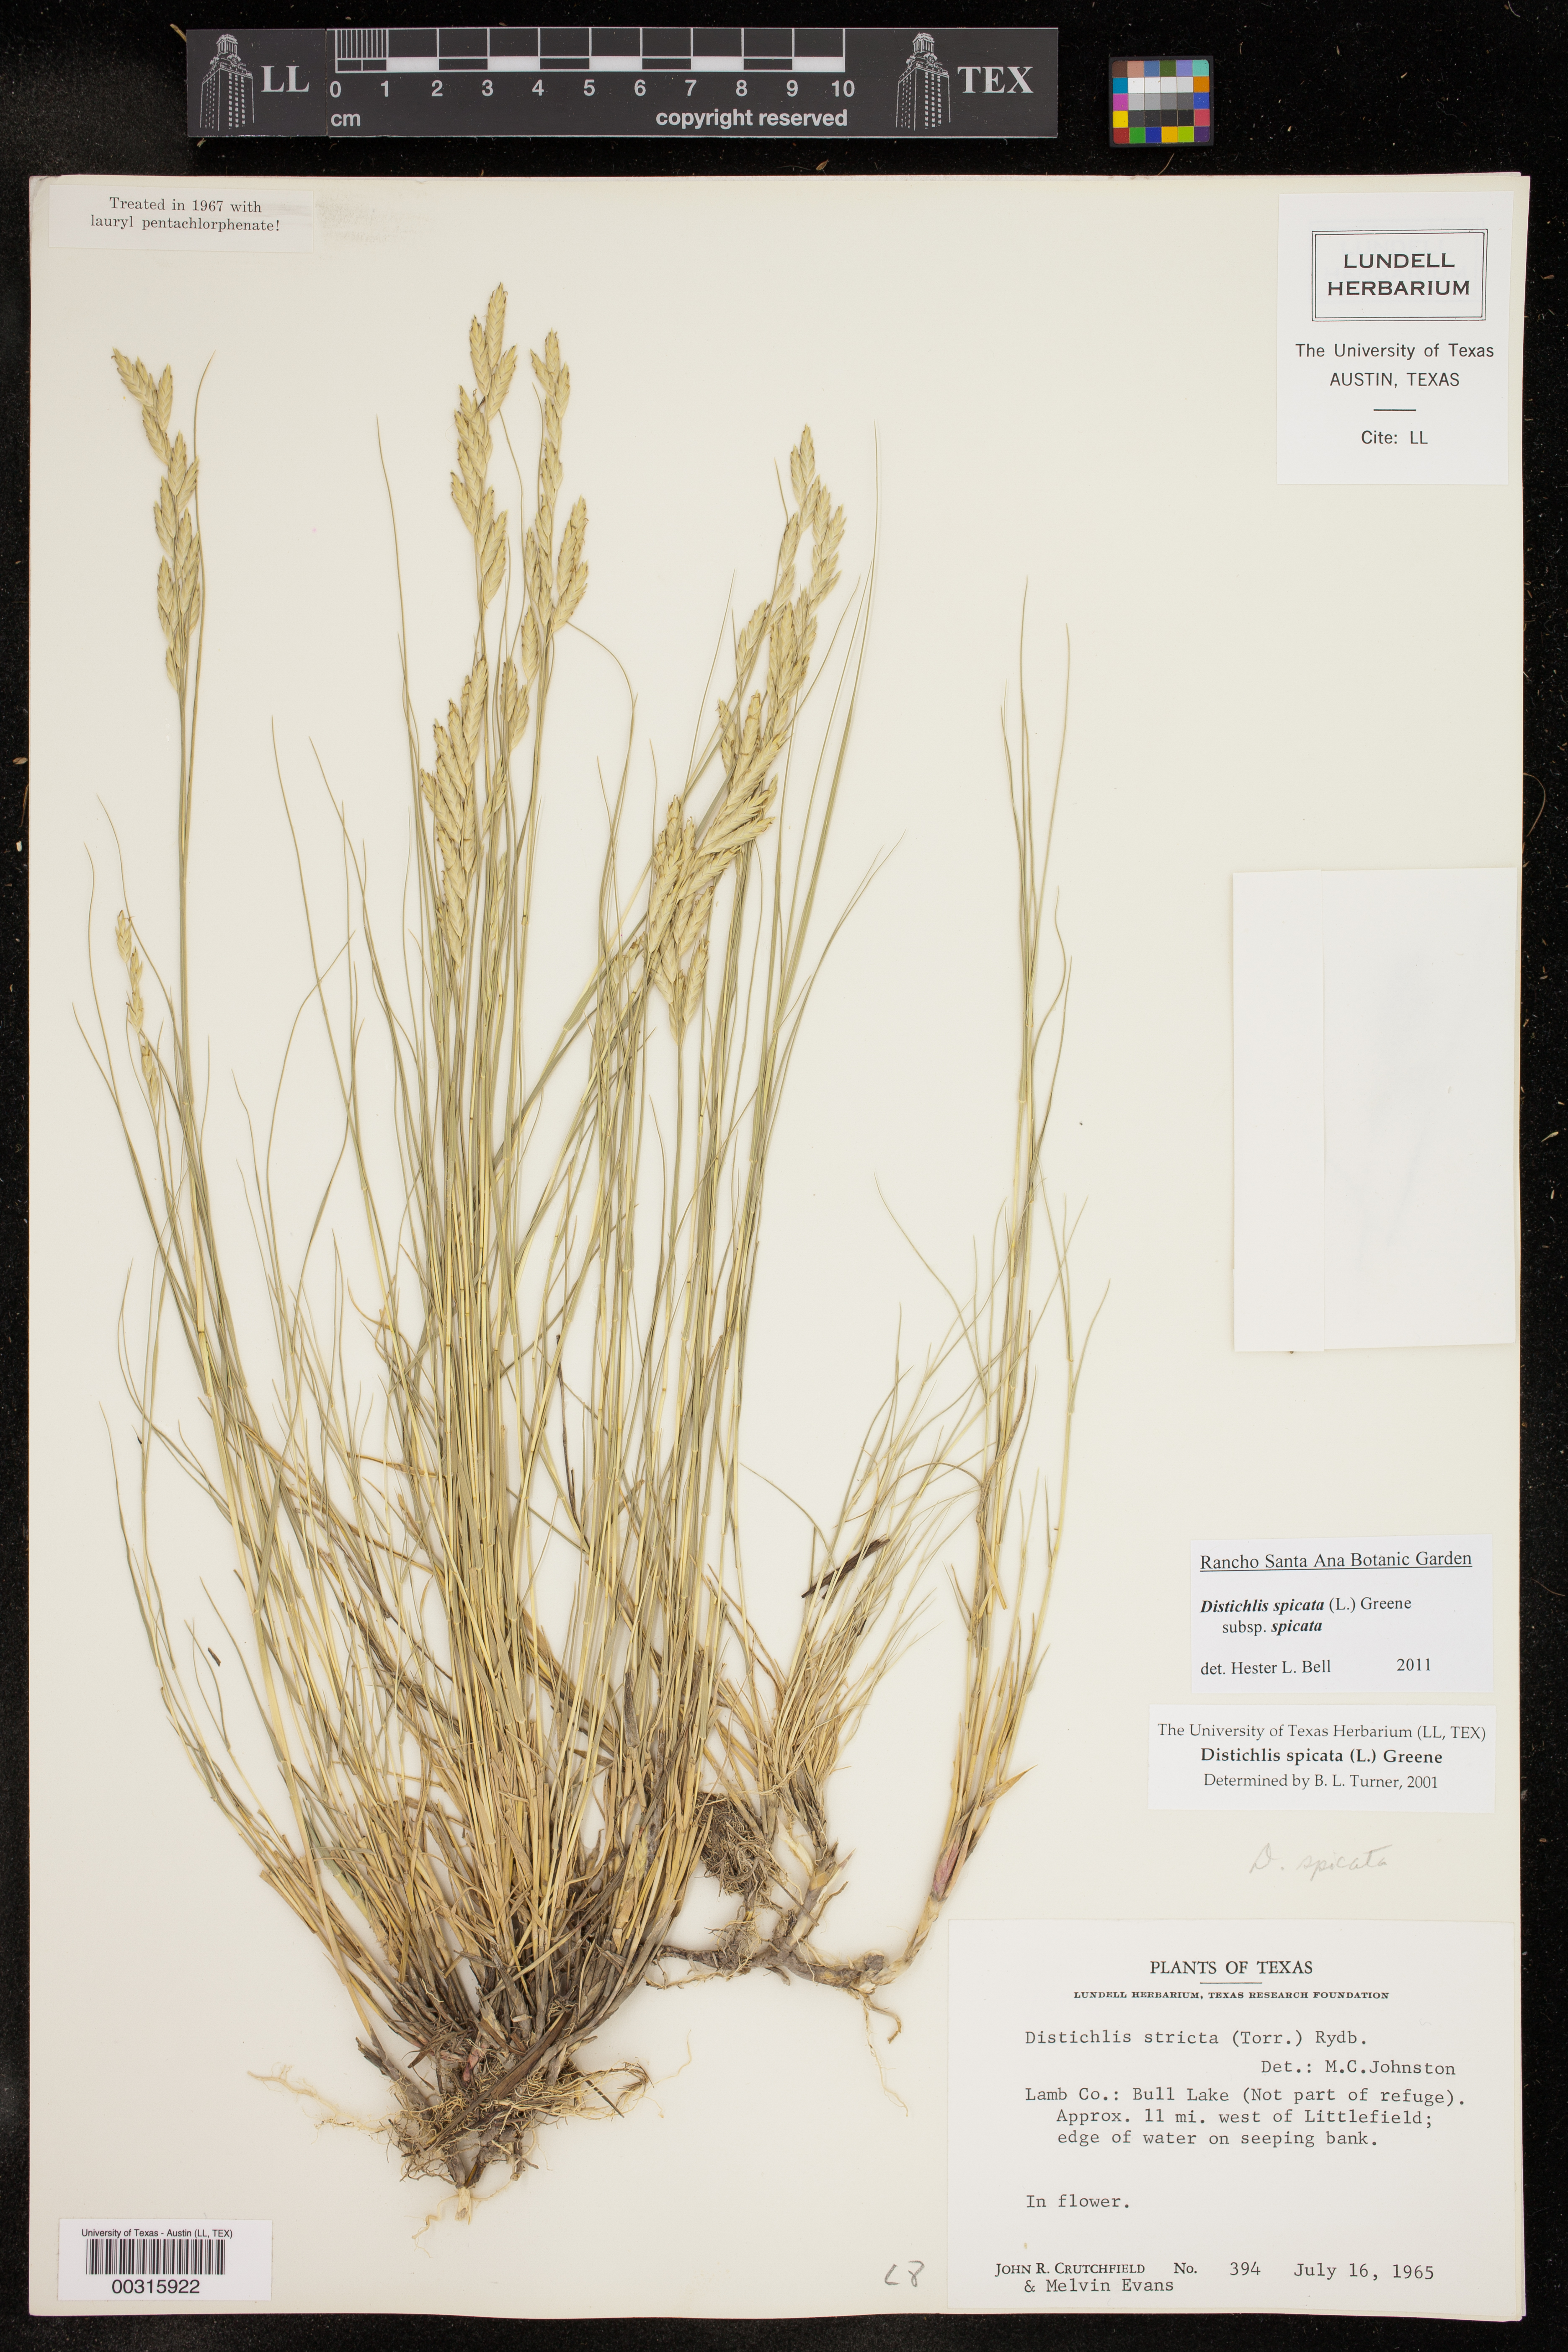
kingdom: Plantae
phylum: Tracheophyta
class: Liliopsida
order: Poales
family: Poaceae
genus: Distichlis
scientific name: Distichlis spicata
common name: Saltgrass
